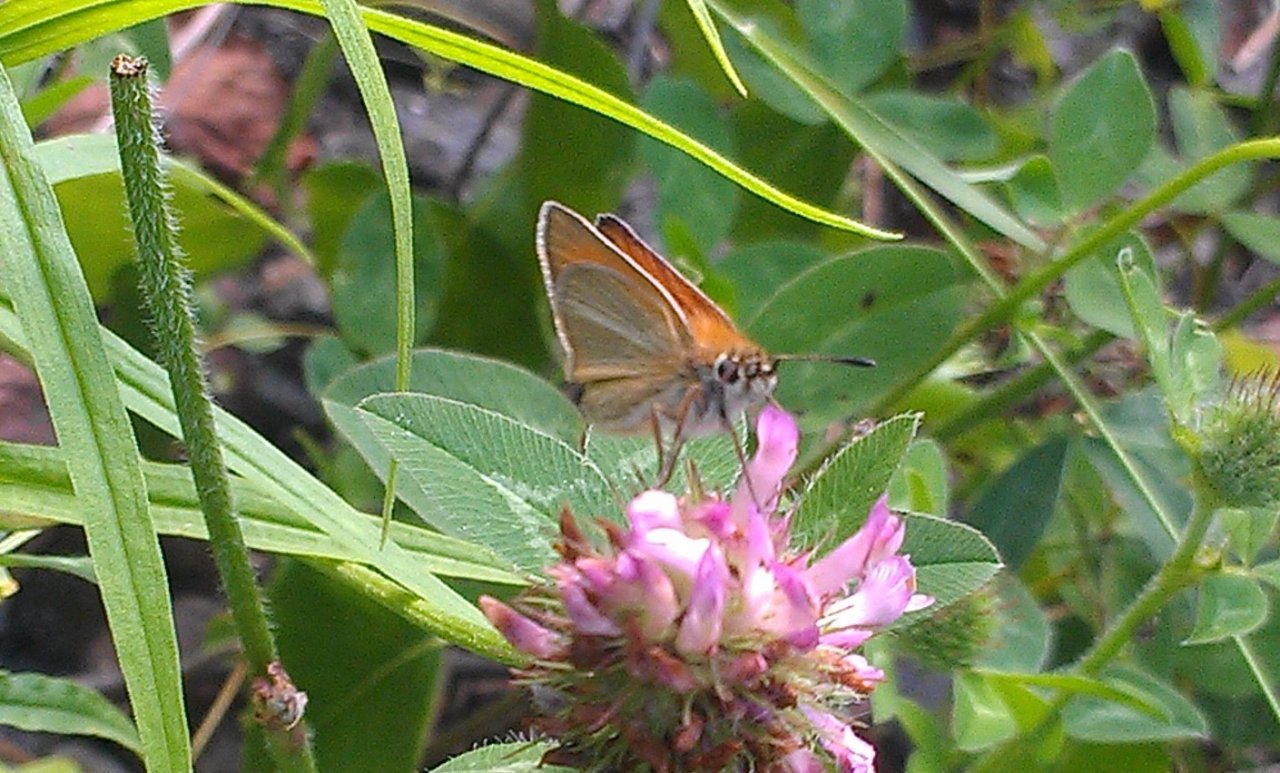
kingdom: Animalia
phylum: Arthropoda
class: Insecta
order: Lepidoptera
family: Hesperiidae
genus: Thymelicus
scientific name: Thymelicus lineola
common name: European Skipper
